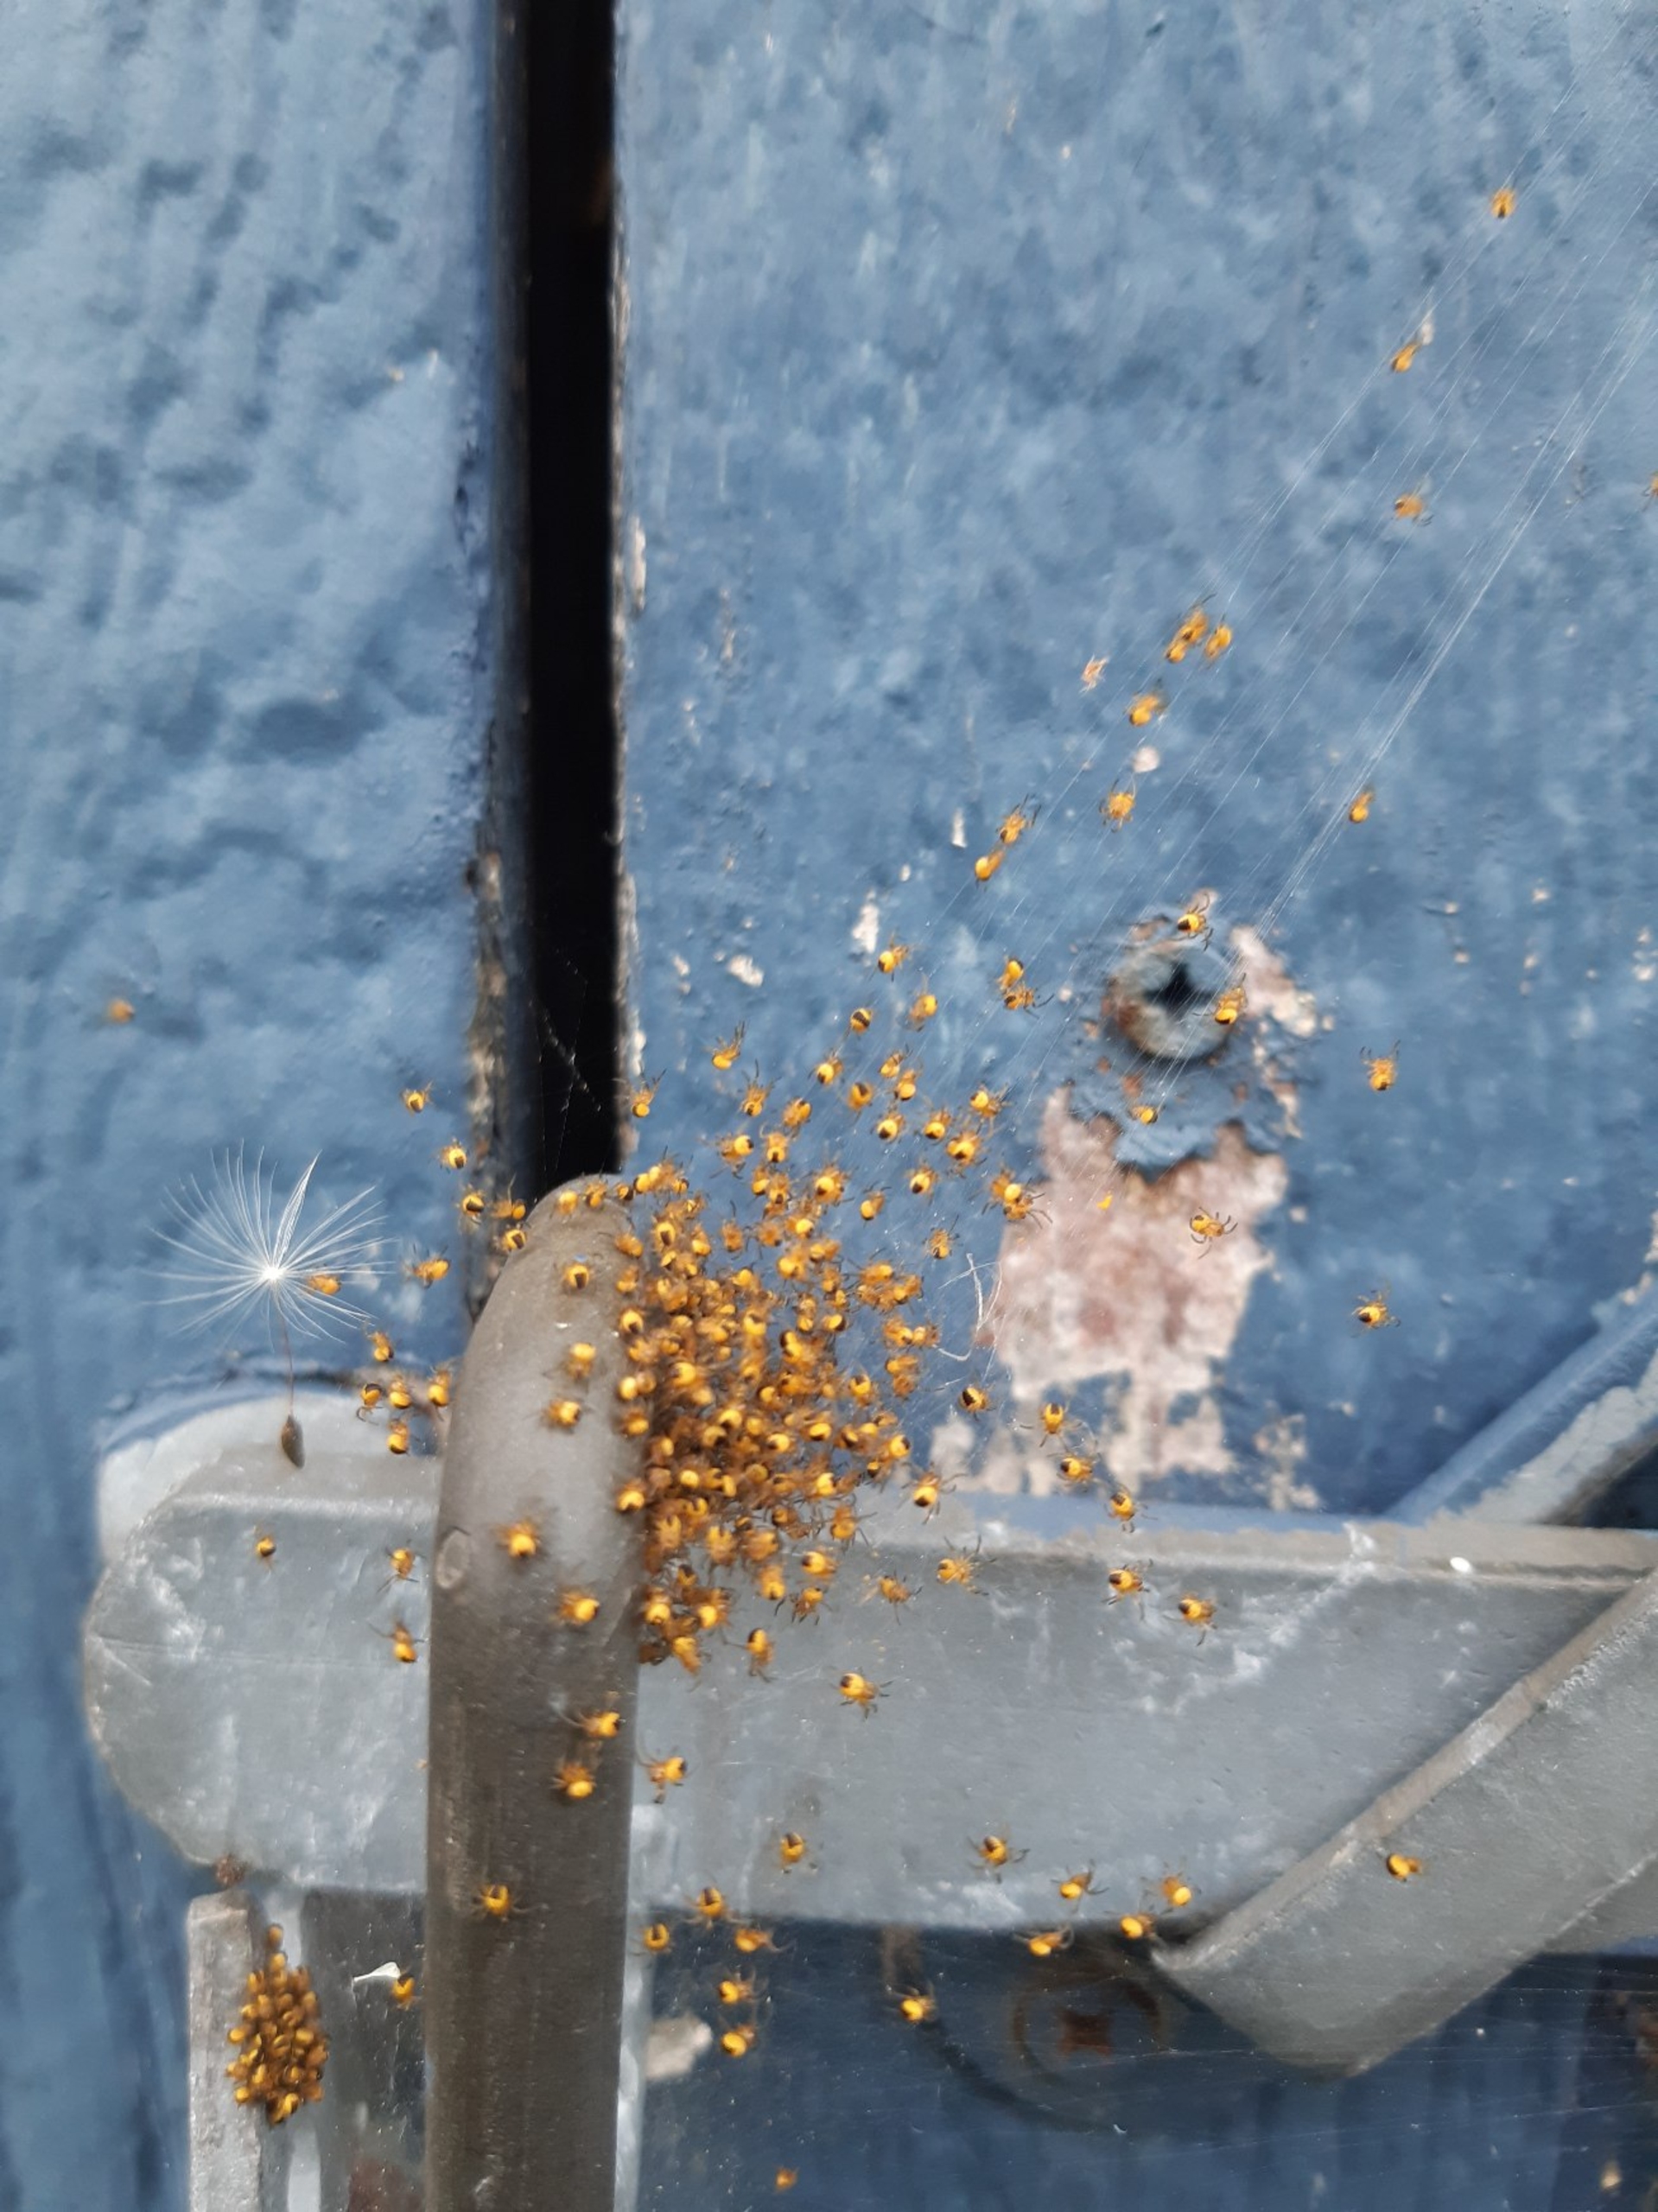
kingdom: Animalia
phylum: Arthropoda
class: Arachnida
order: Araneae
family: Araneidae
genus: Araneus
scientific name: Araneus diadematus
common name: Korsedderkop
